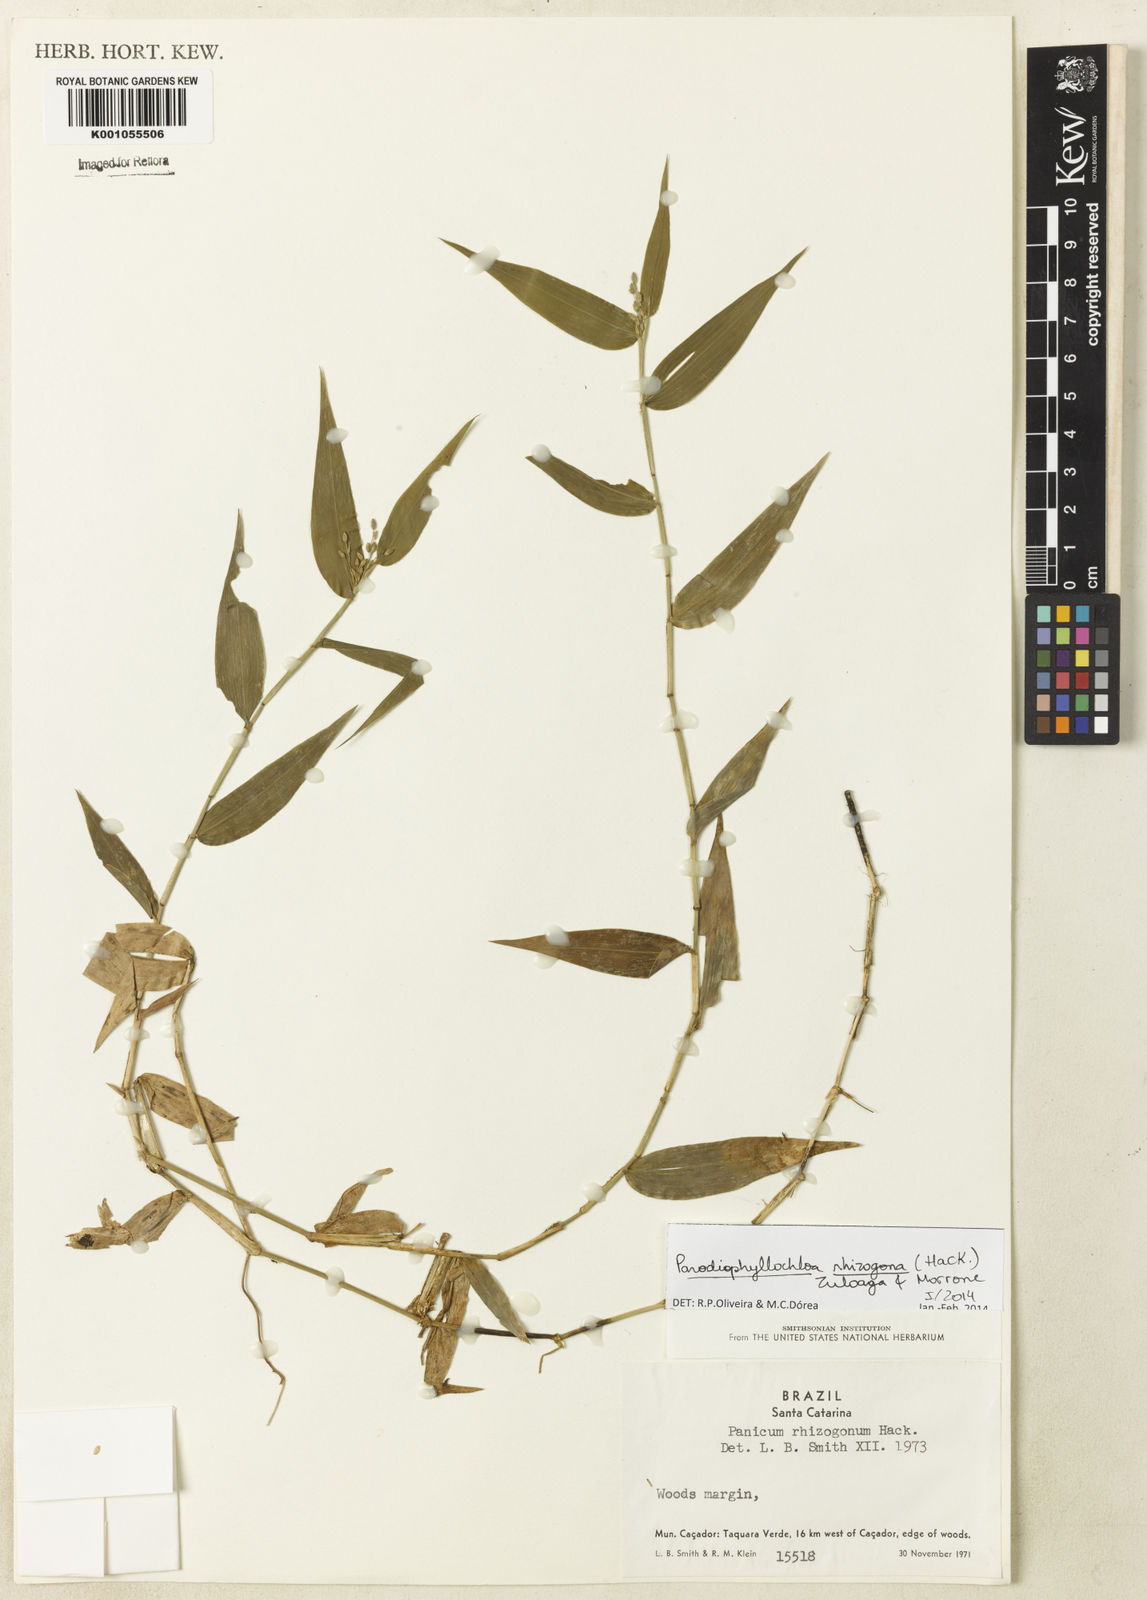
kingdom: Plantae
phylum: Tracheophyta
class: Liliopsida
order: Poales
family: Poaceae
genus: Parodiophyllochloa
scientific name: Parodiophyllochloa rhizogona
